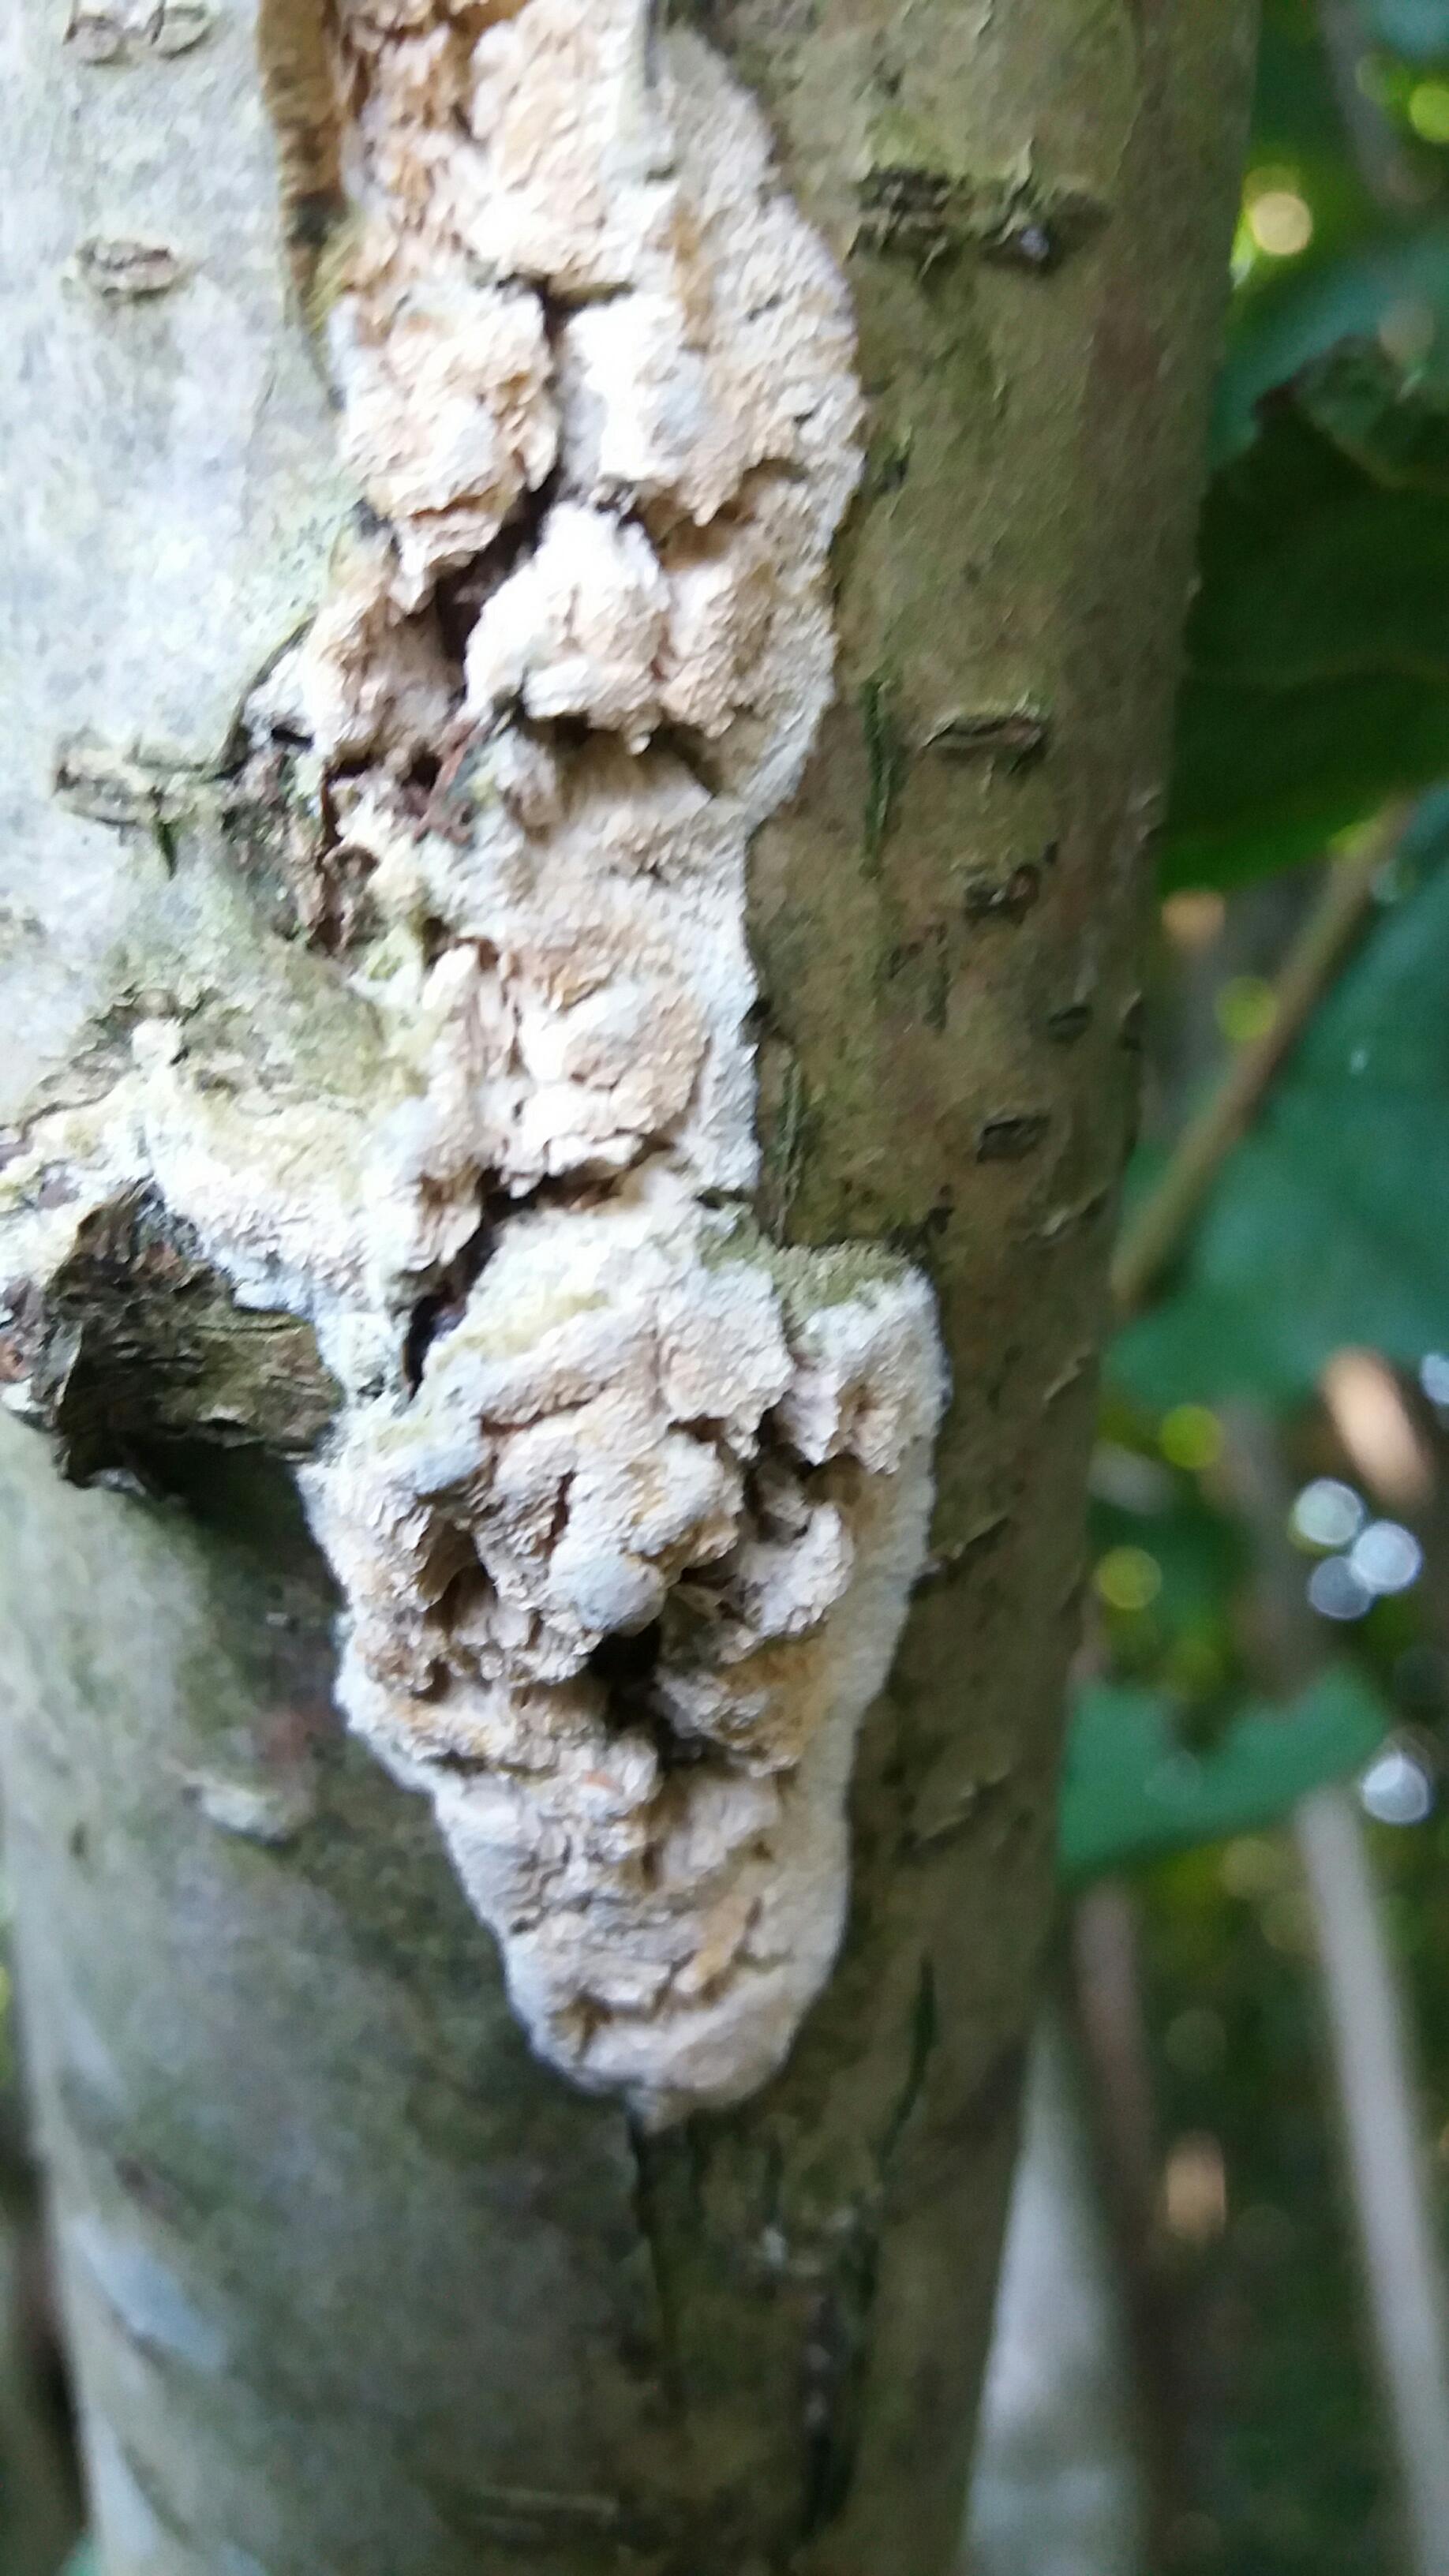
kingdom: Fungi
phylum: Basidiomycota
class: Agaricomycetes
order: Hymenochaetales
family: Schizoporaceae
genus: Xylodon
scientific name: Xylodon subtropicus
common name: labyrint-tandsvamp
